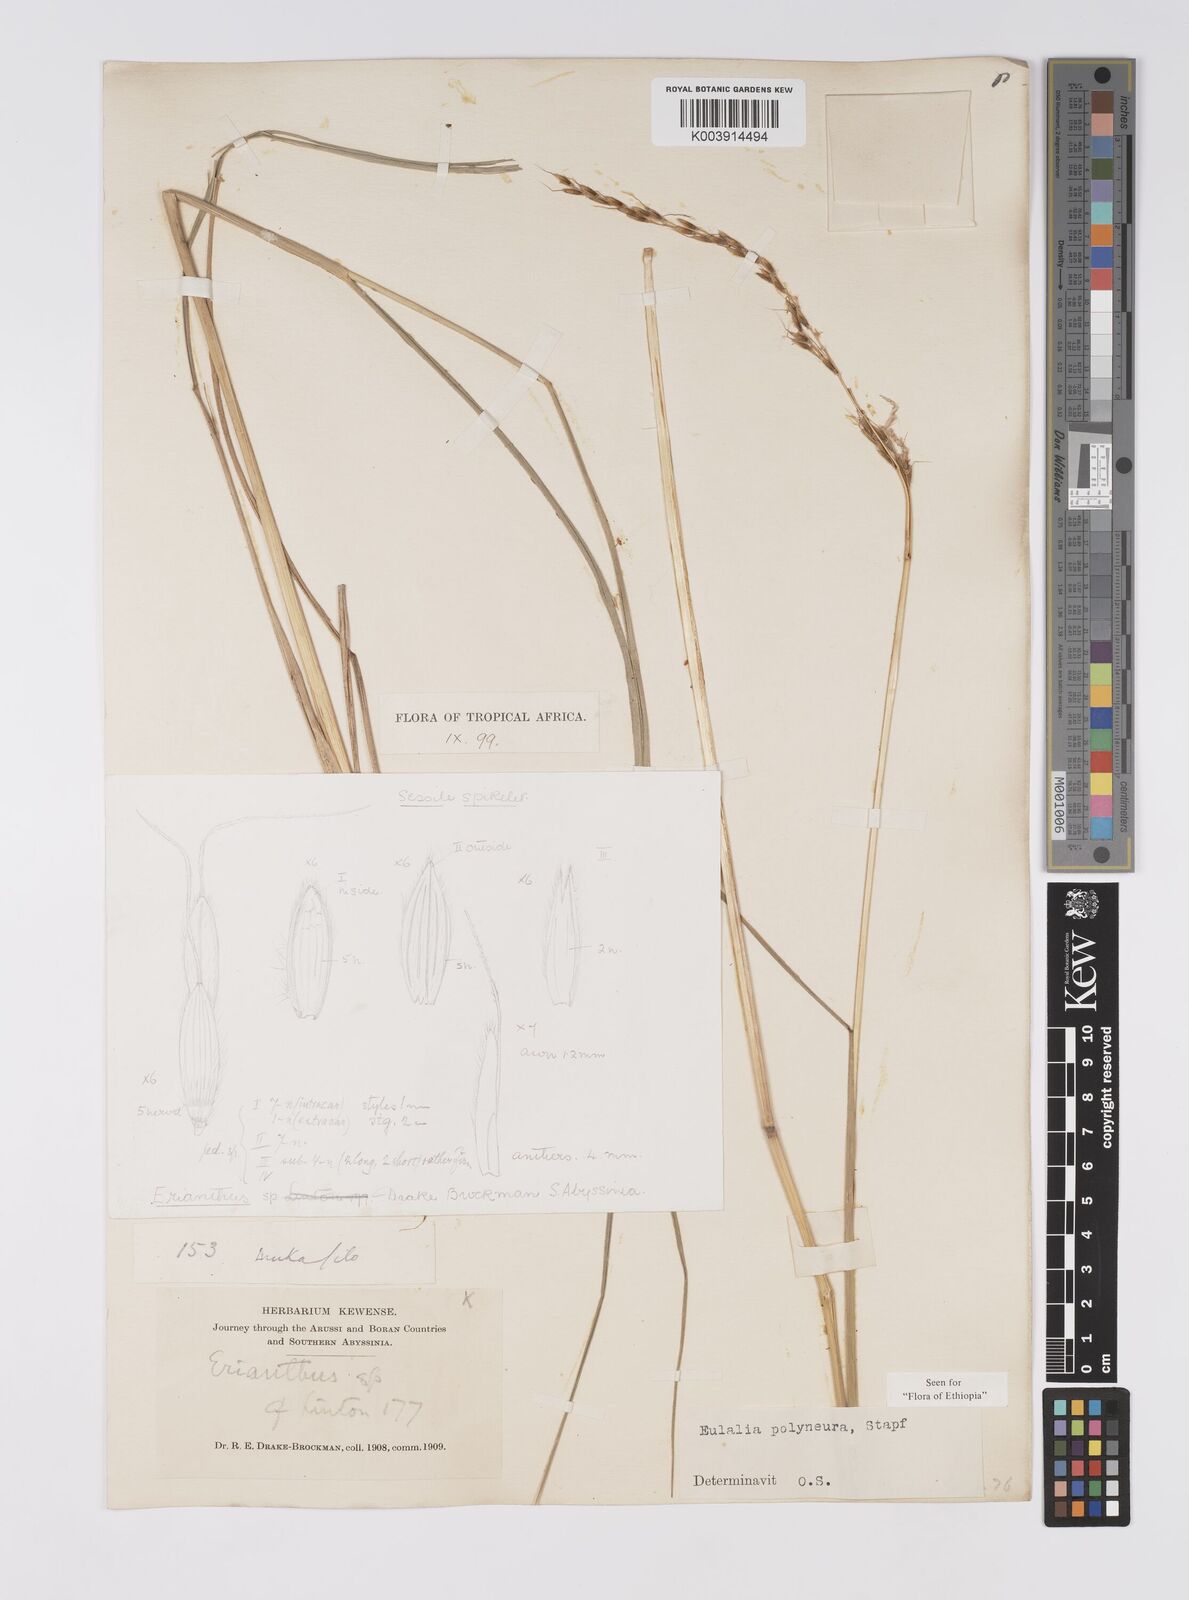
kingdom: Plantae
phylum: Tracheophyta
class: Liliopsida
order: Poales
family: Poaceae
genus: Eulalia
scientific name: Eulalia polyneura
